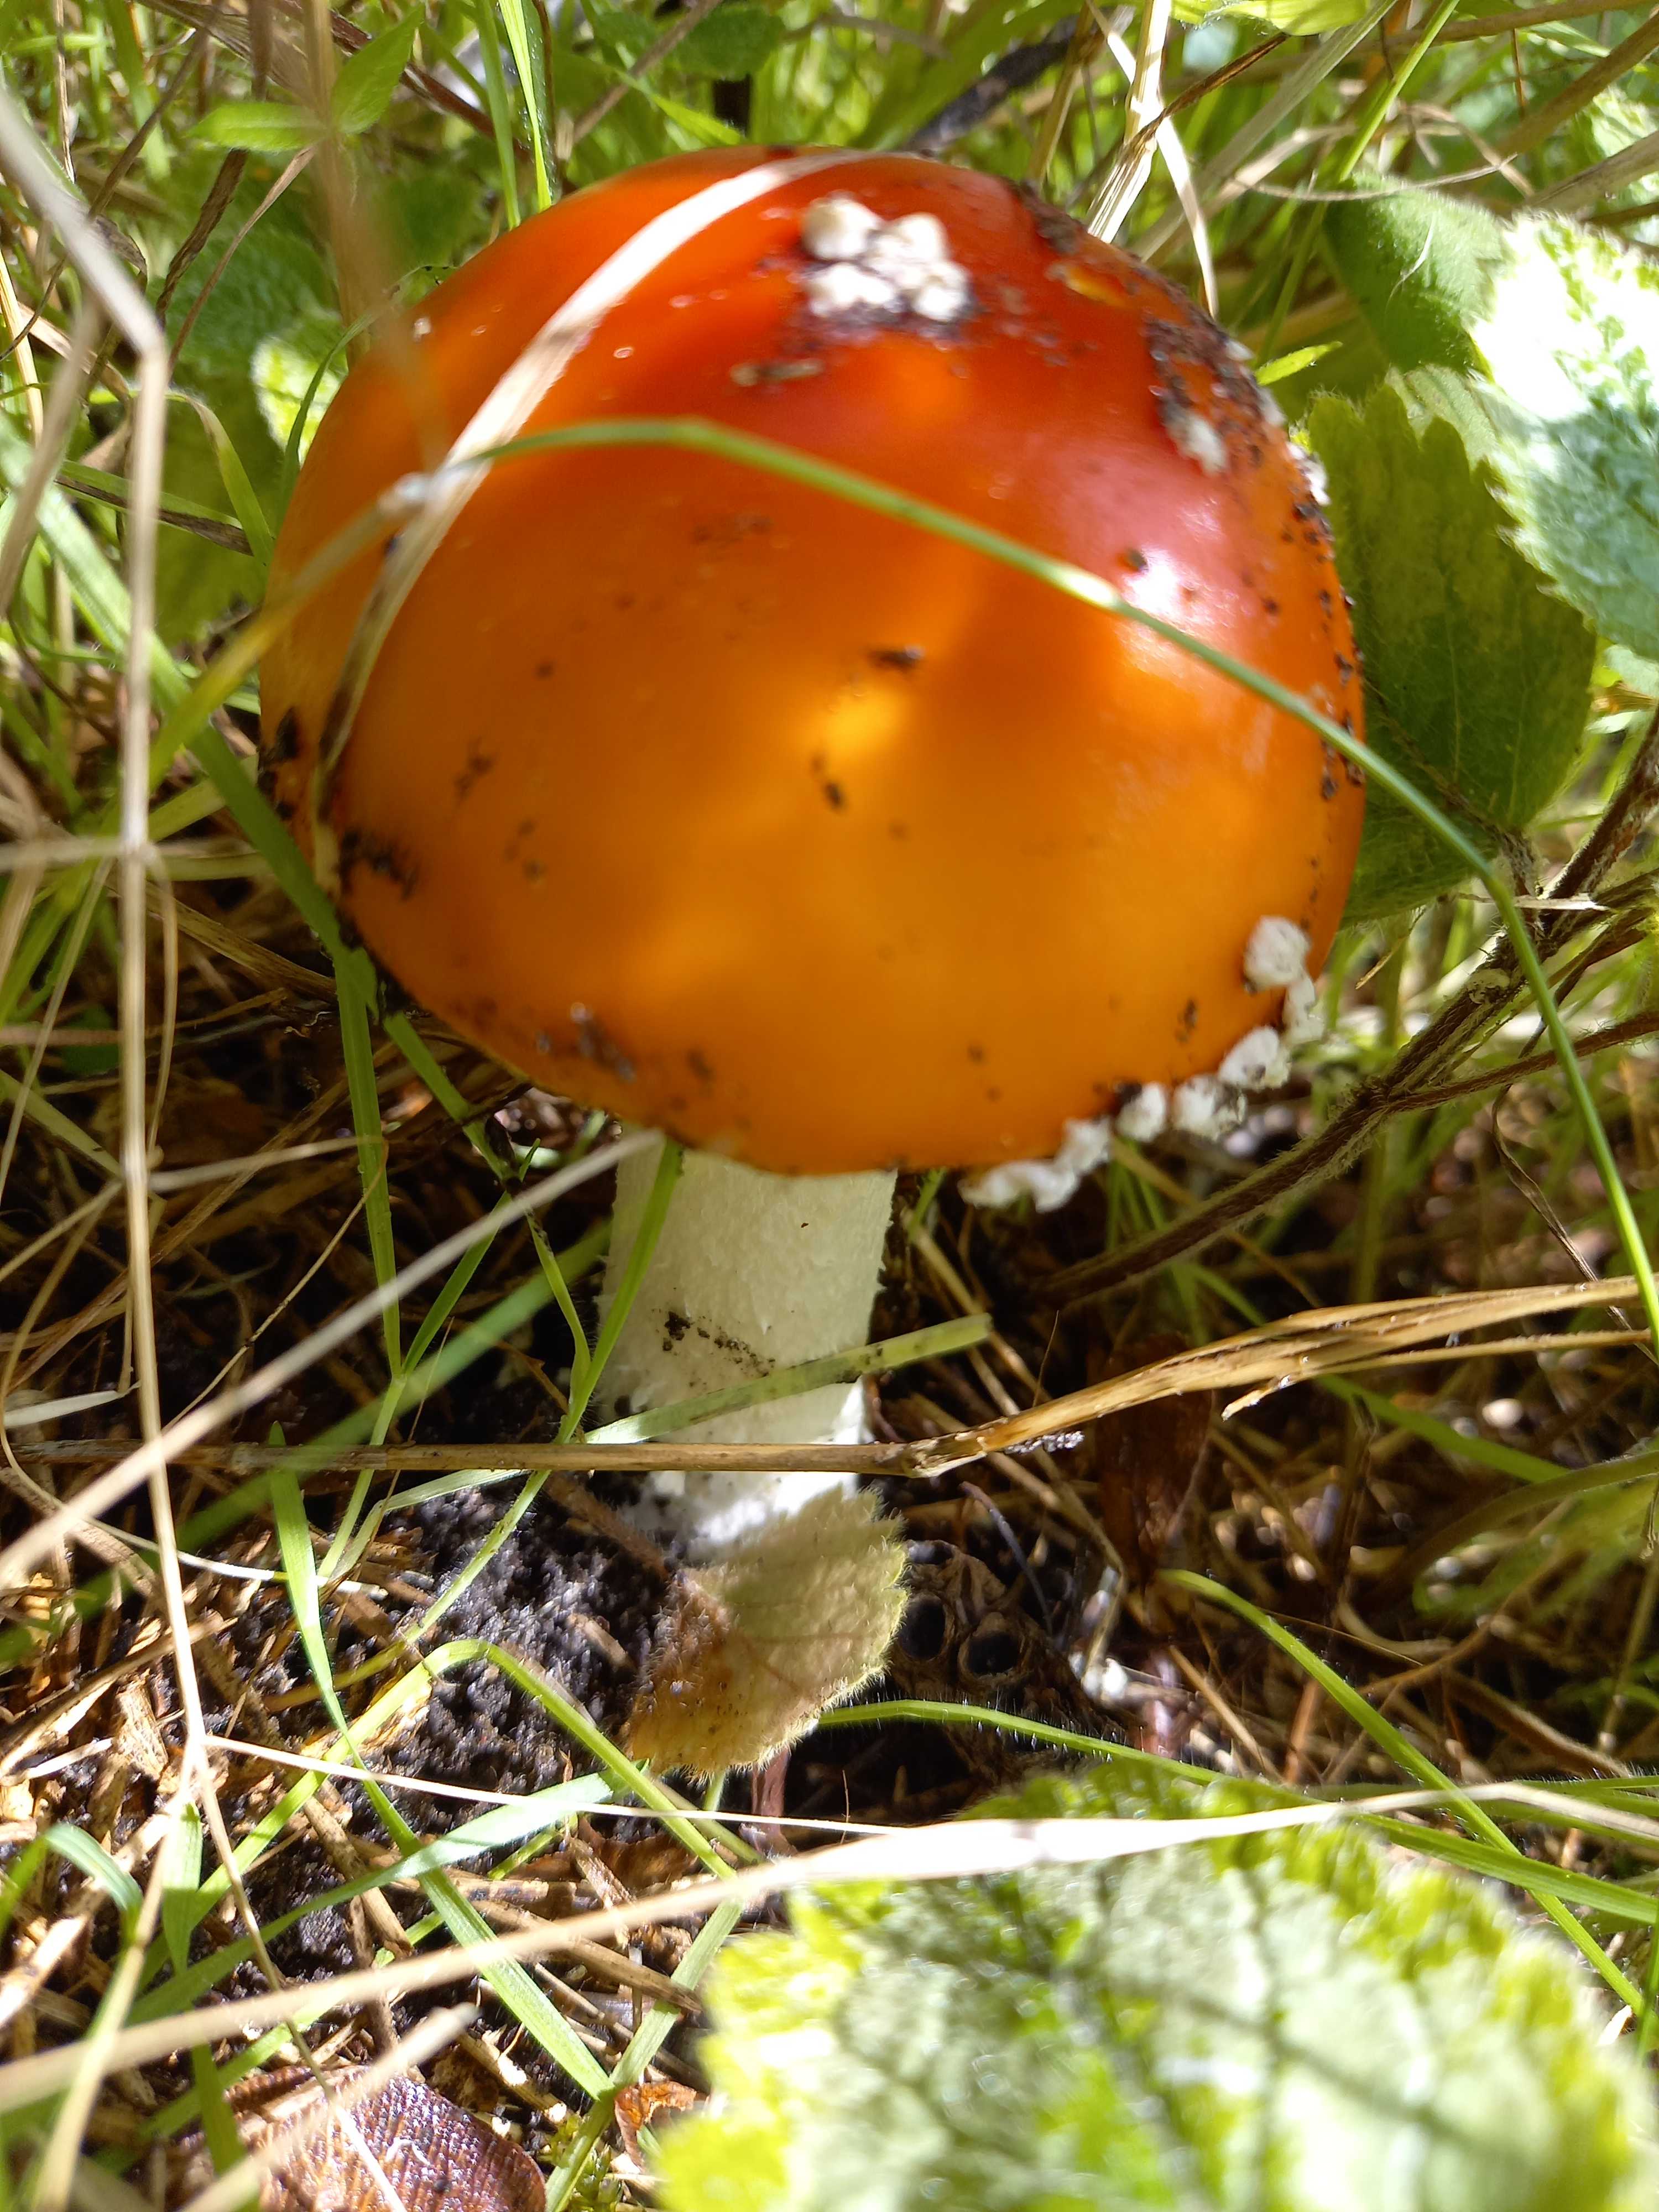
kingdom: Fungi
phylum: Basidiomycota
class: Agaricomycetes
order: Agaricales
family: Amanitaceae
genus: Amanita
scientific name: Amanita muscaria
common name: rød fluesvamp
